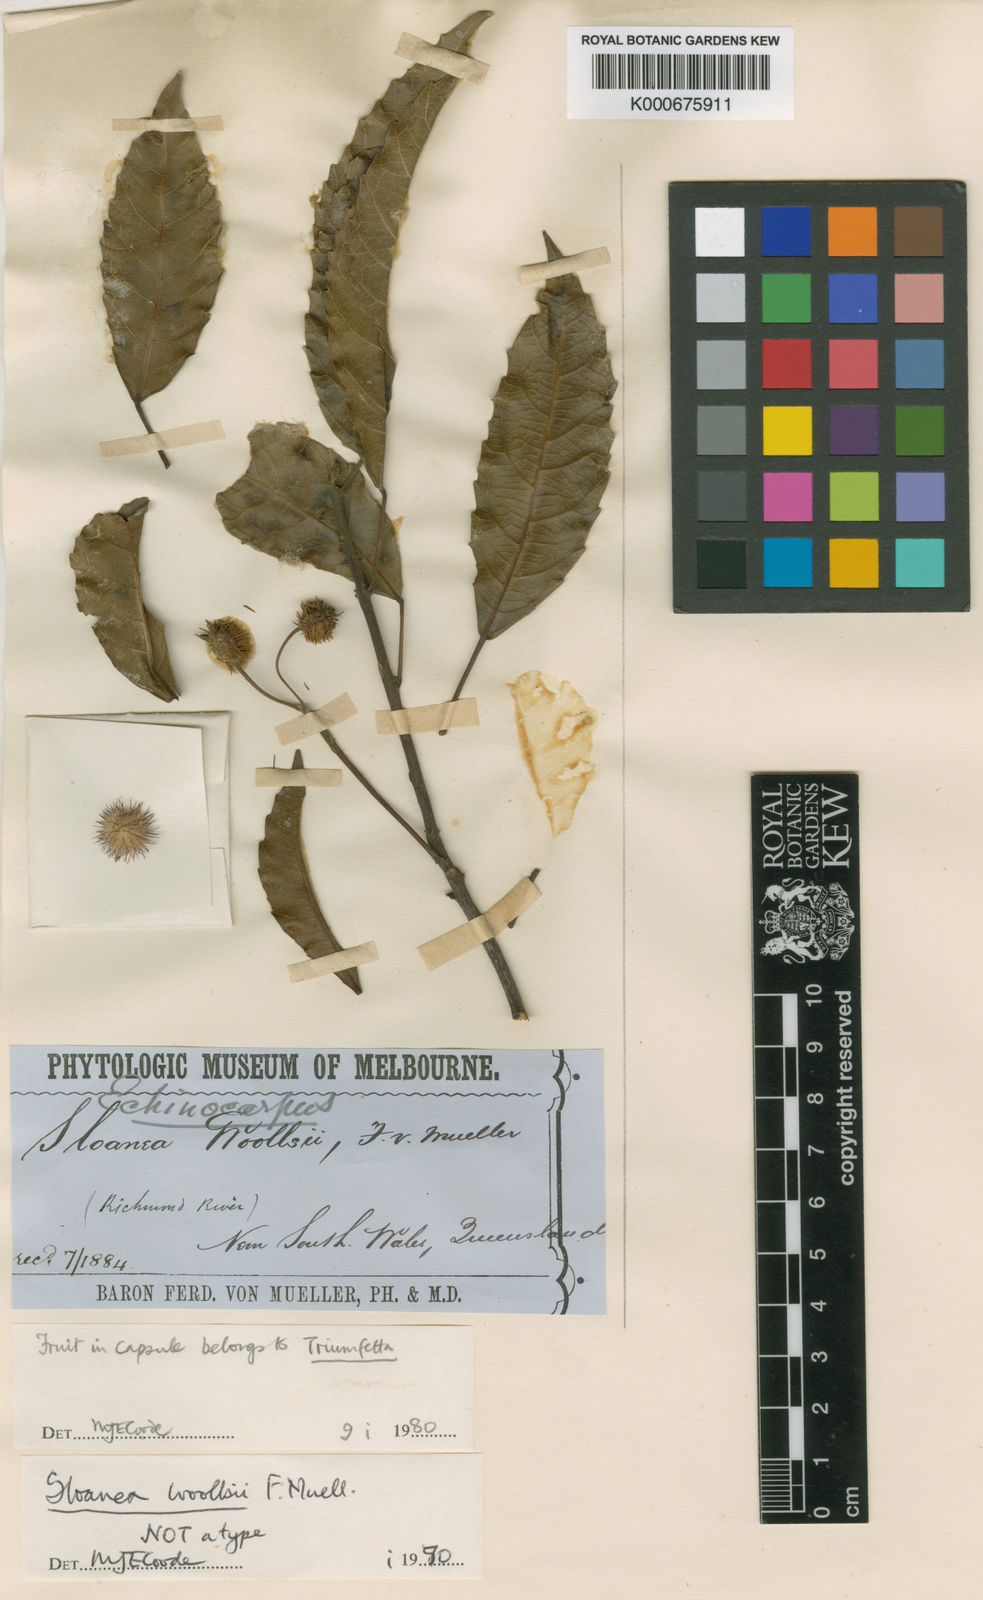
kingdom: Plantae
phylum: Tracheophyta
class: Magnoliopsida
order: Oxalidales
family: Elaeocarpaceae
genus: Sloanea
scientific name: Sloanea woollsii
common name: Yellow carabeen
